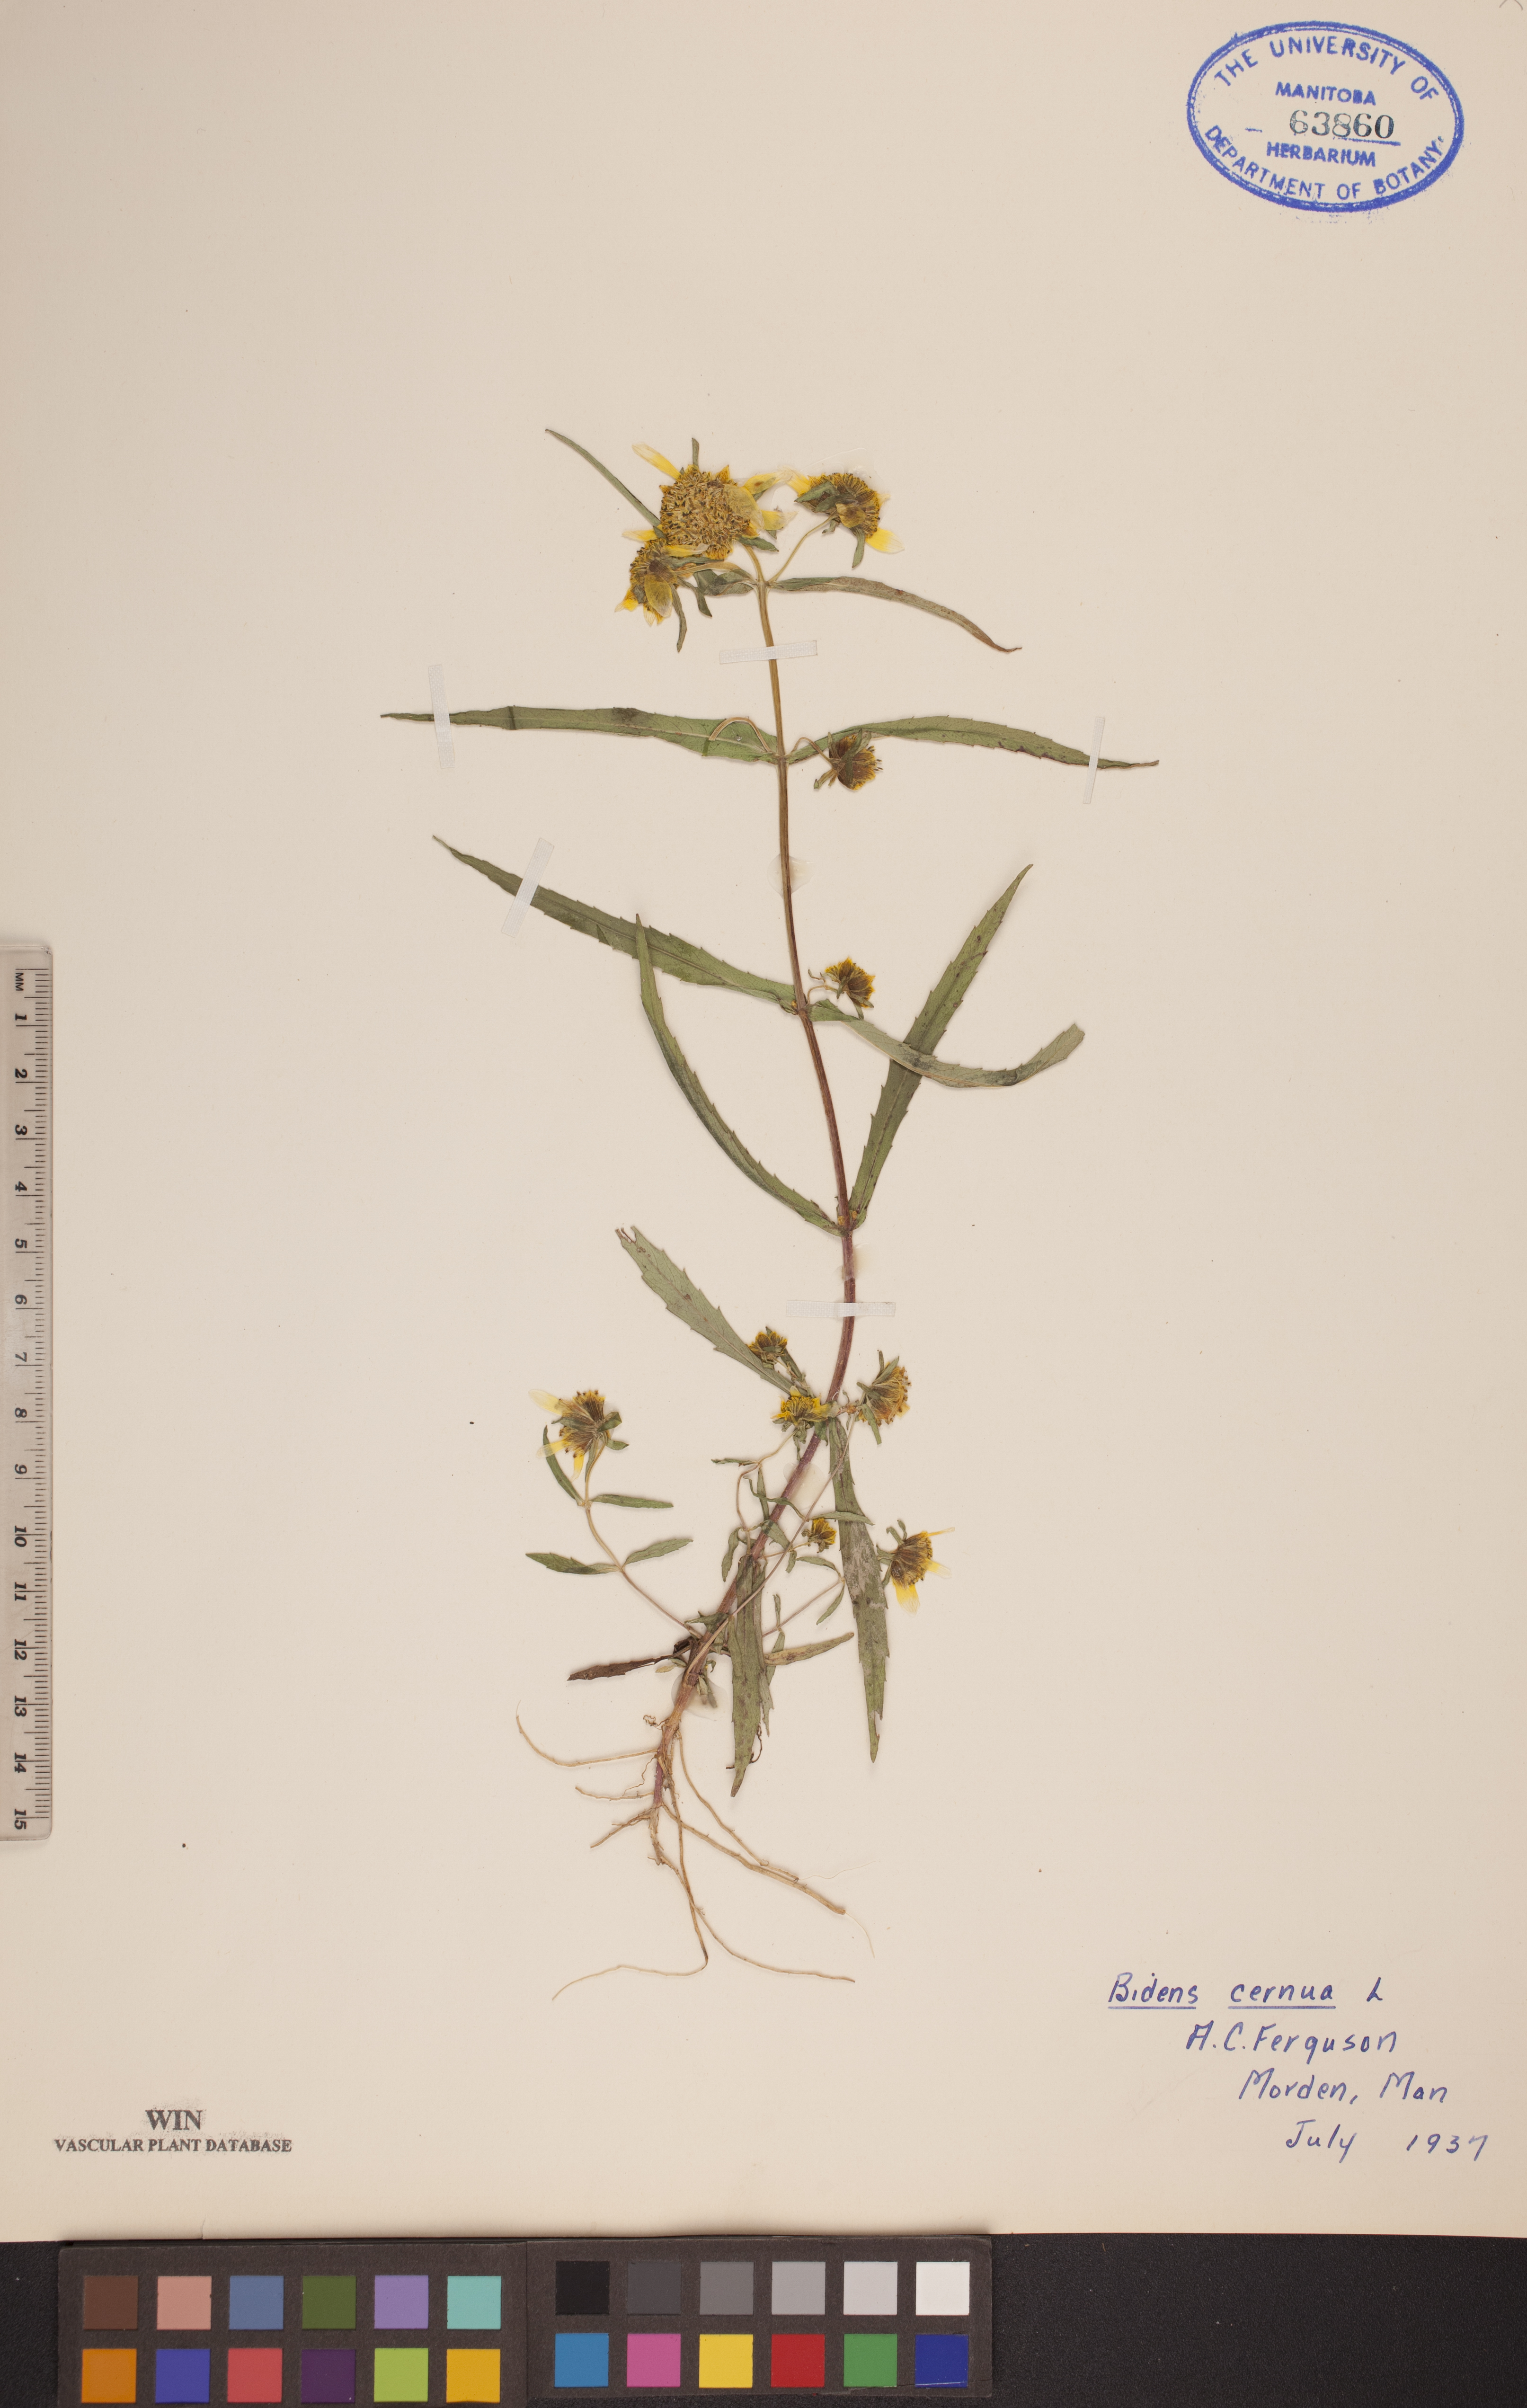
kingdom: Plantae
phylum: Tracheophyta
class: Magnoliopsida
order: Asterales
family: Asteraceae
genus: Bidens
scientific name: Bidens cernua
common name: Nodding bur-marigold
